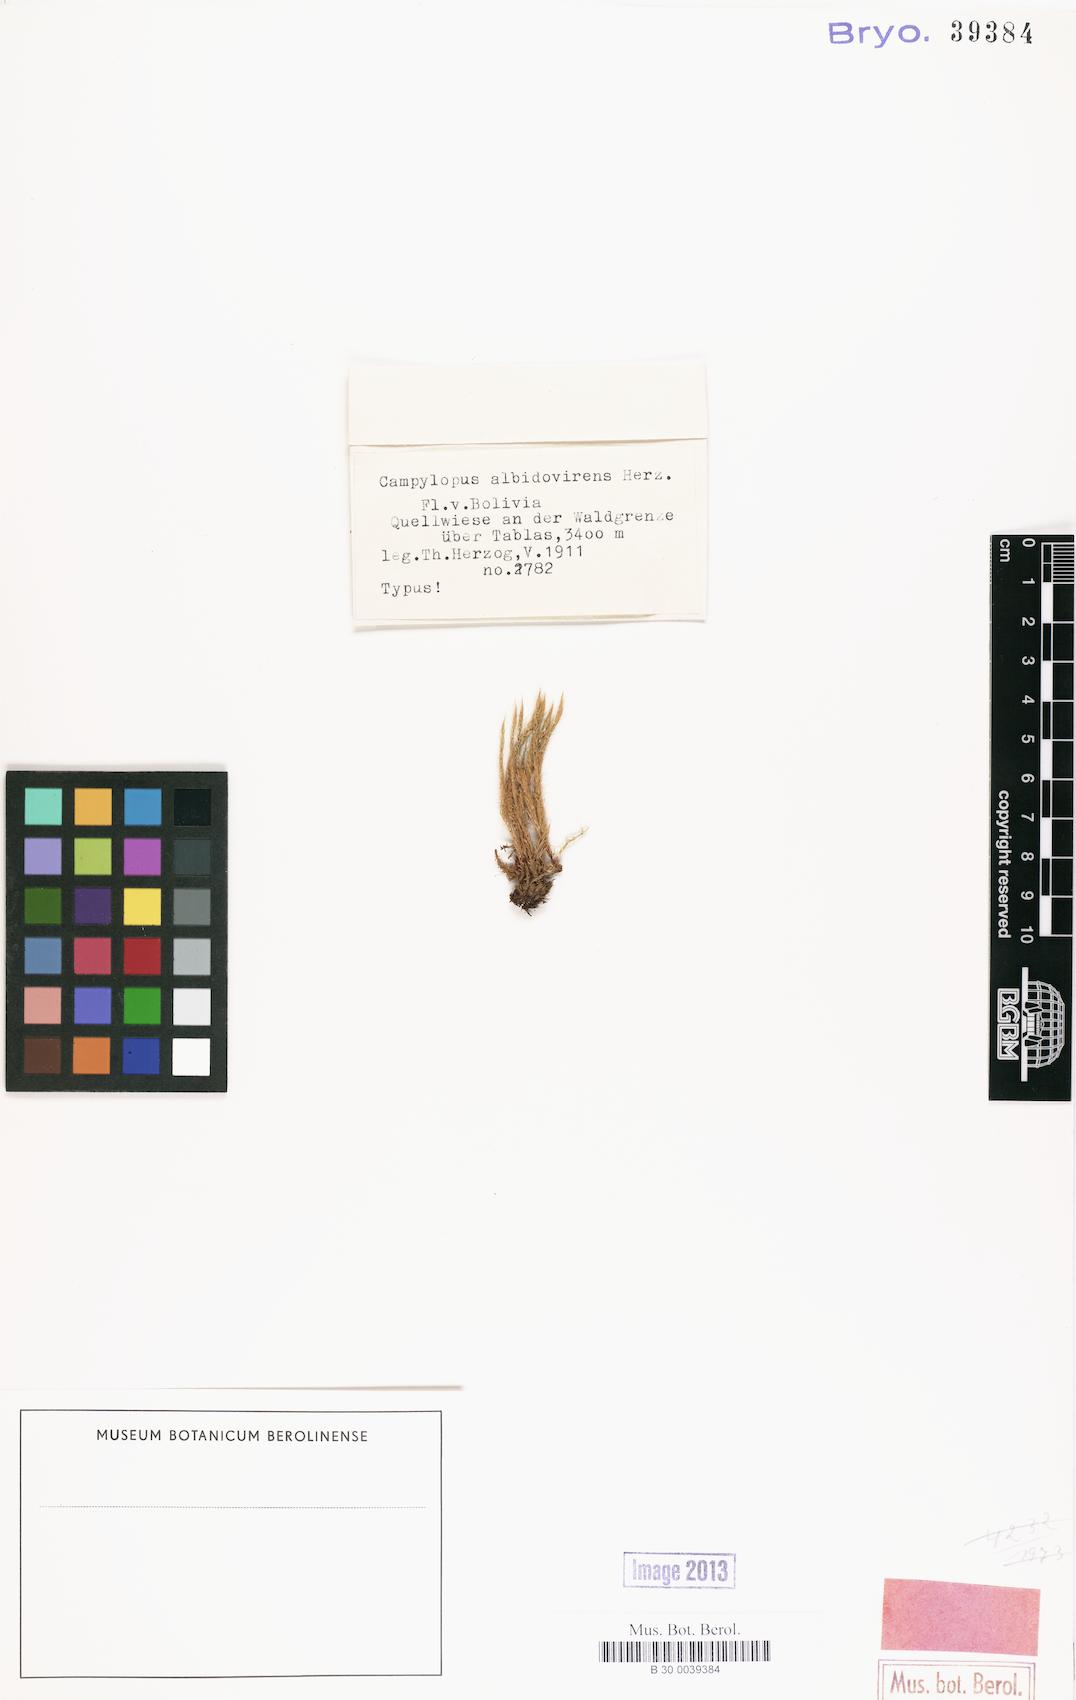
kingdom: Plantae
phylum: Bryophyta
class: Bryopsida
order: Dicranales
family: Leucobryaceae
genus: Campylopus
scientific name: Campylopus albidovirens
